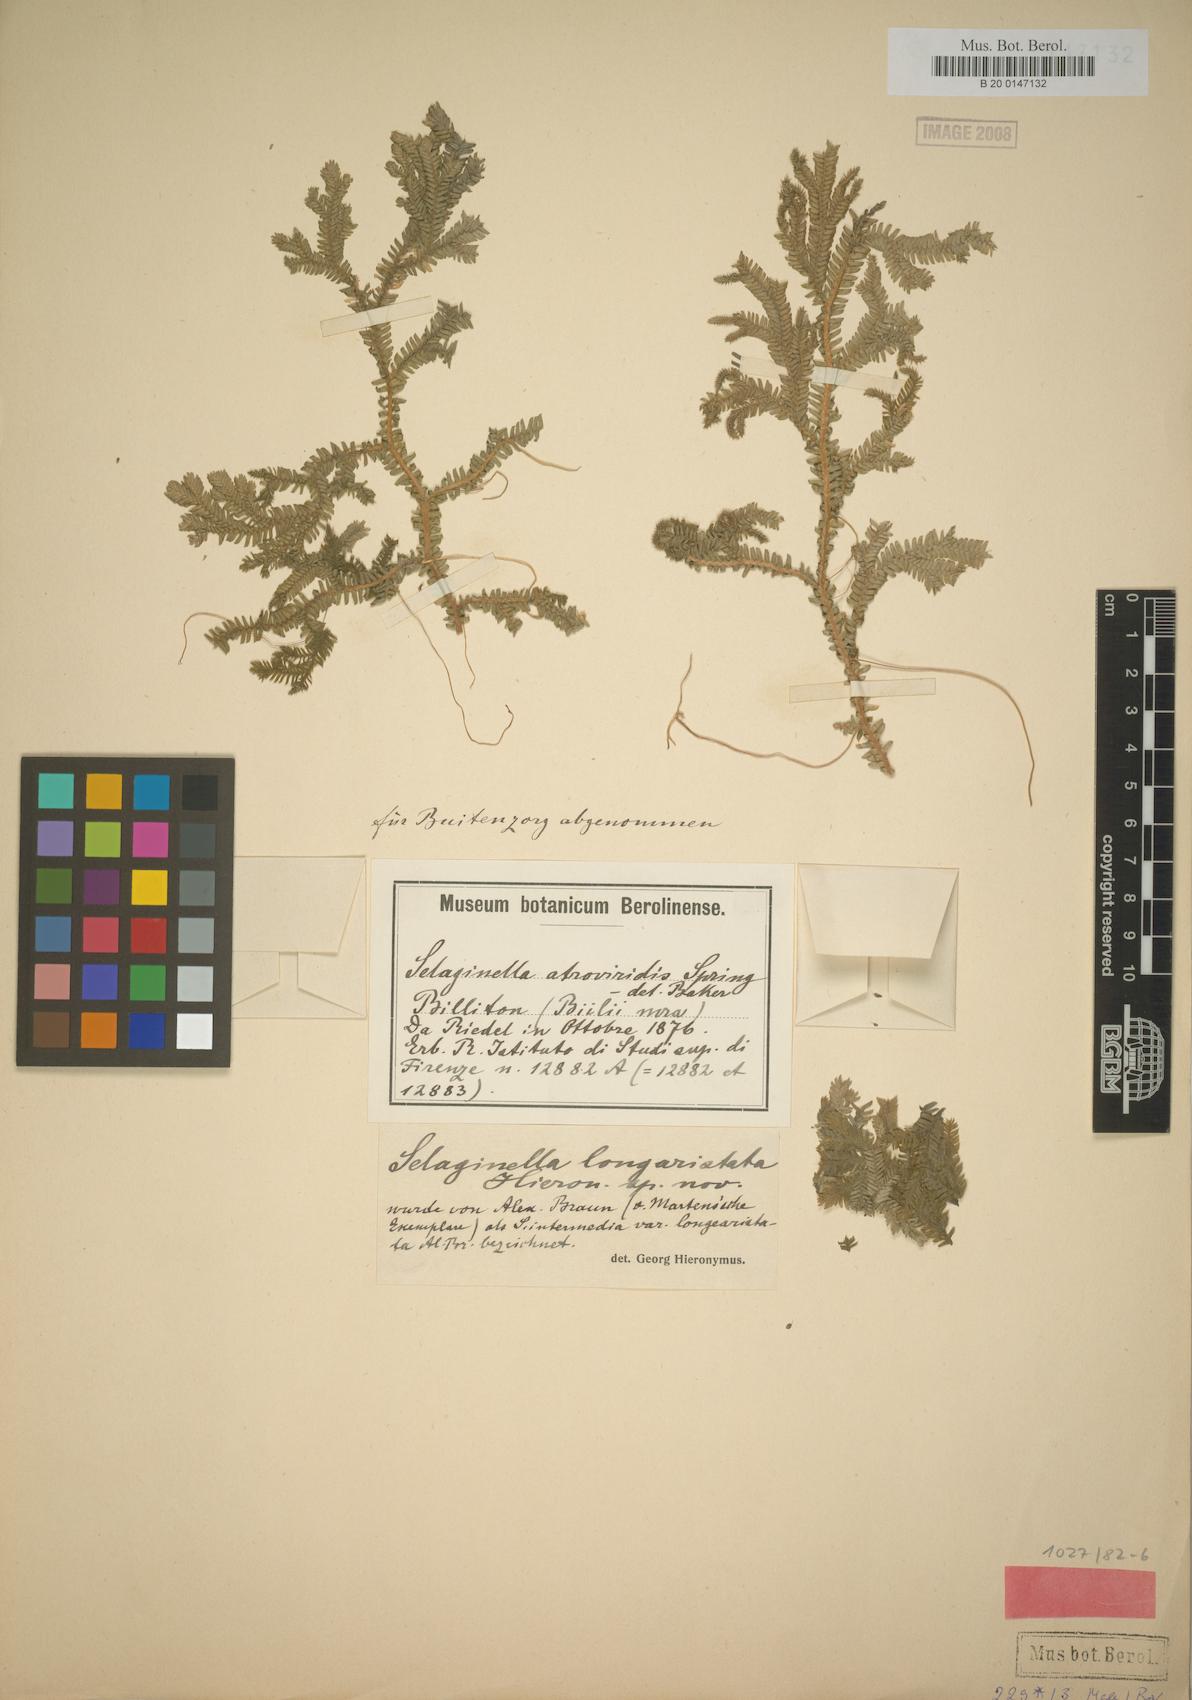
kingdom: Plantae
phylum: Tracheophyta
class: Lycopodiopsida
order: Selaginellales
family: Selaginellaceae
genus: Selaginella
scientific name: Selaginella longiaristata
